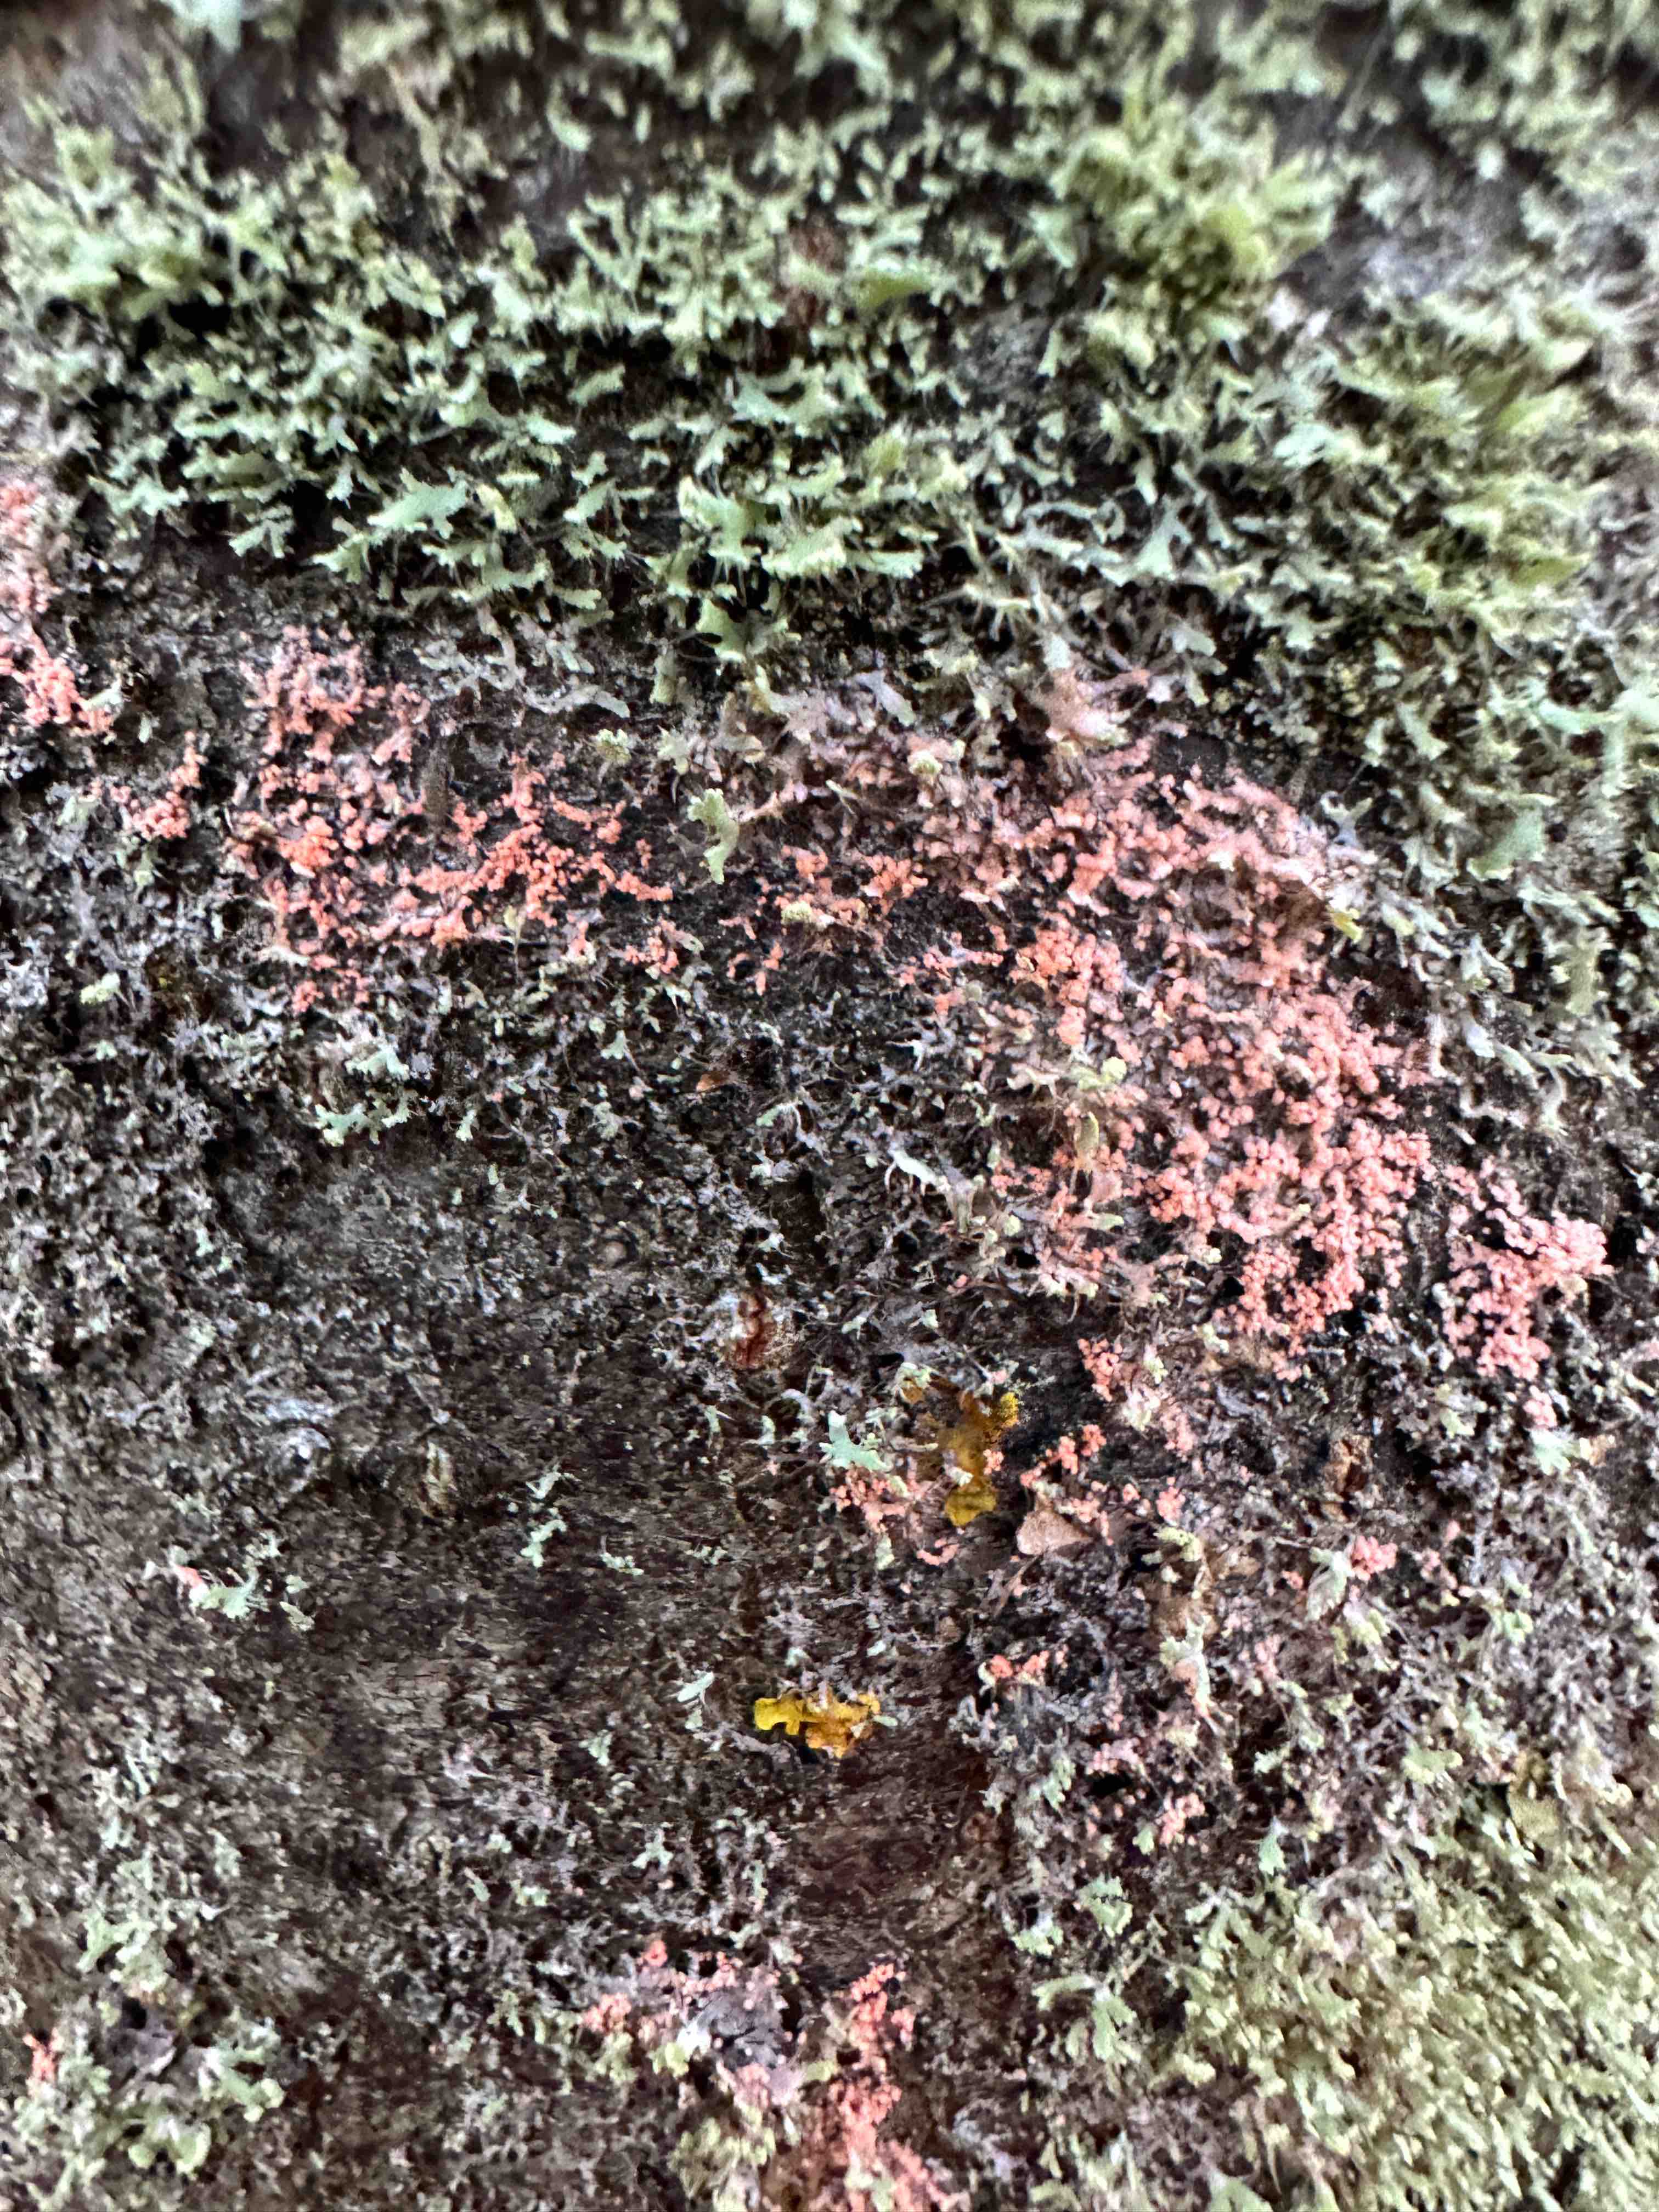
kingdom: Fungi
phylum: Basidiomycota
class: Agaricomycetes
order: Corticiales
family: Corticiaceae
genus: Erythricium
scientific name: Erythricium aurantiacum
